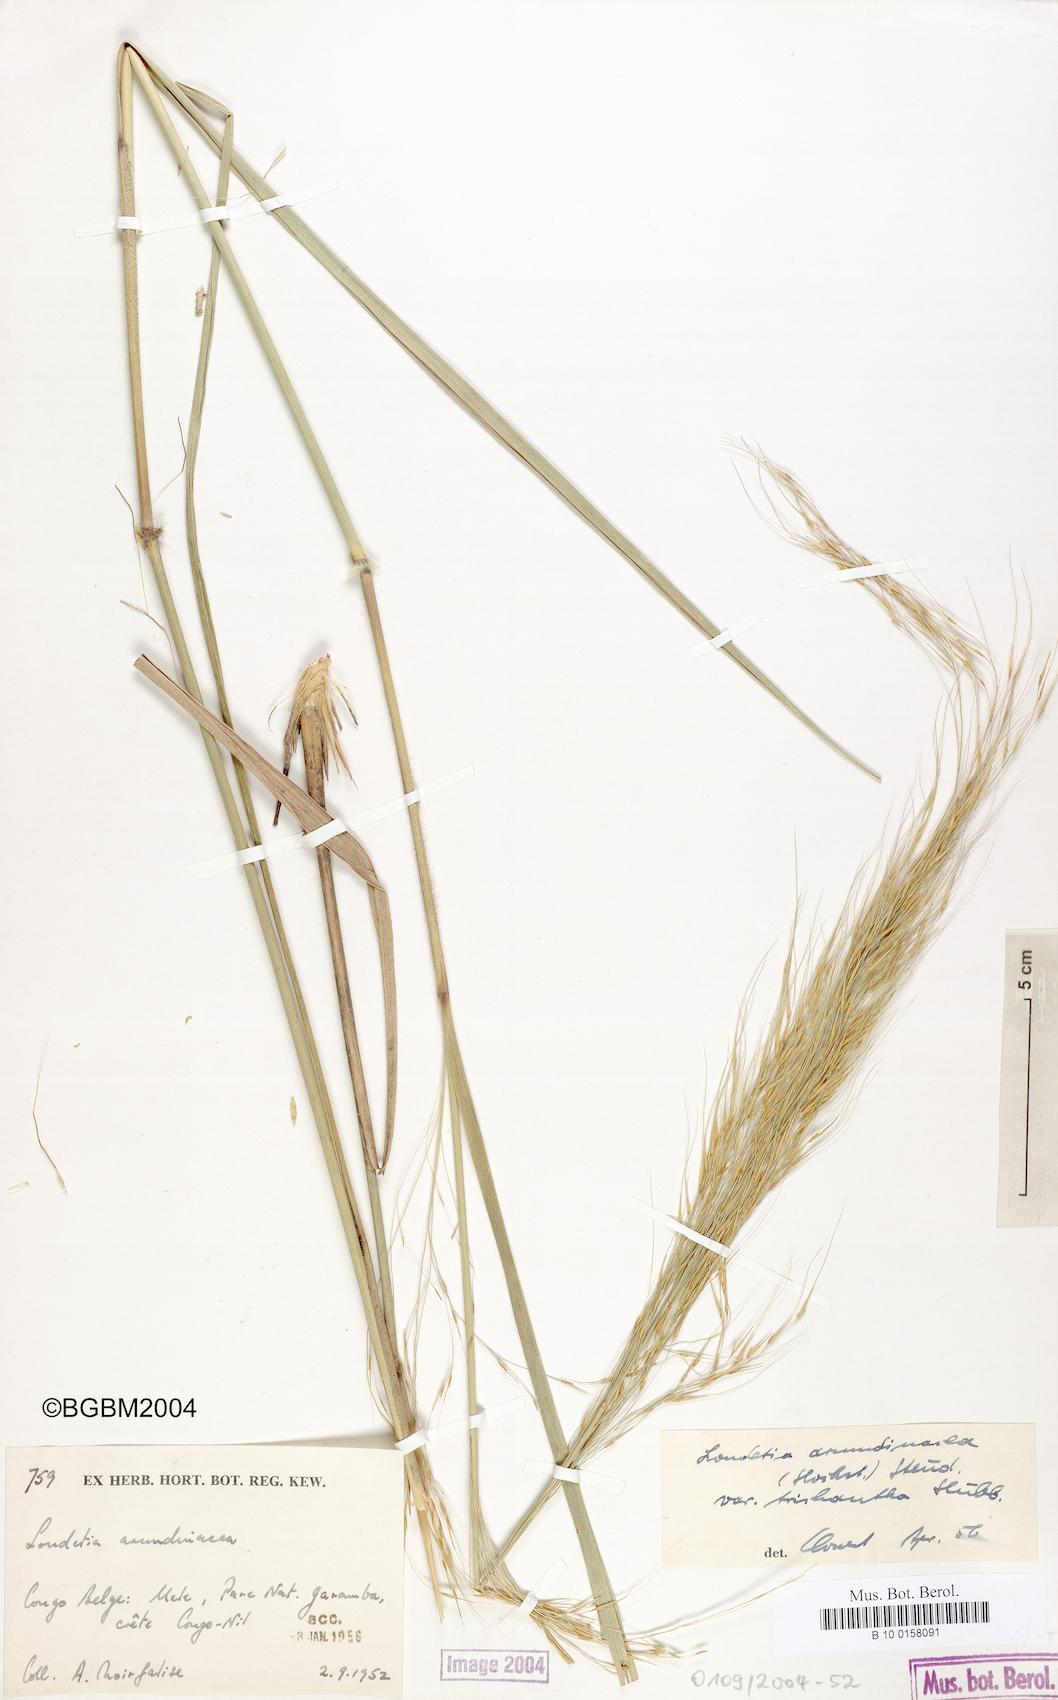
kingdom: Plantae
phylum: Tracheophyta
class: Liliopsida
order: Poales
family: Poaceae
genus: Loudetia
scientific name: Loudetia arundinacea
